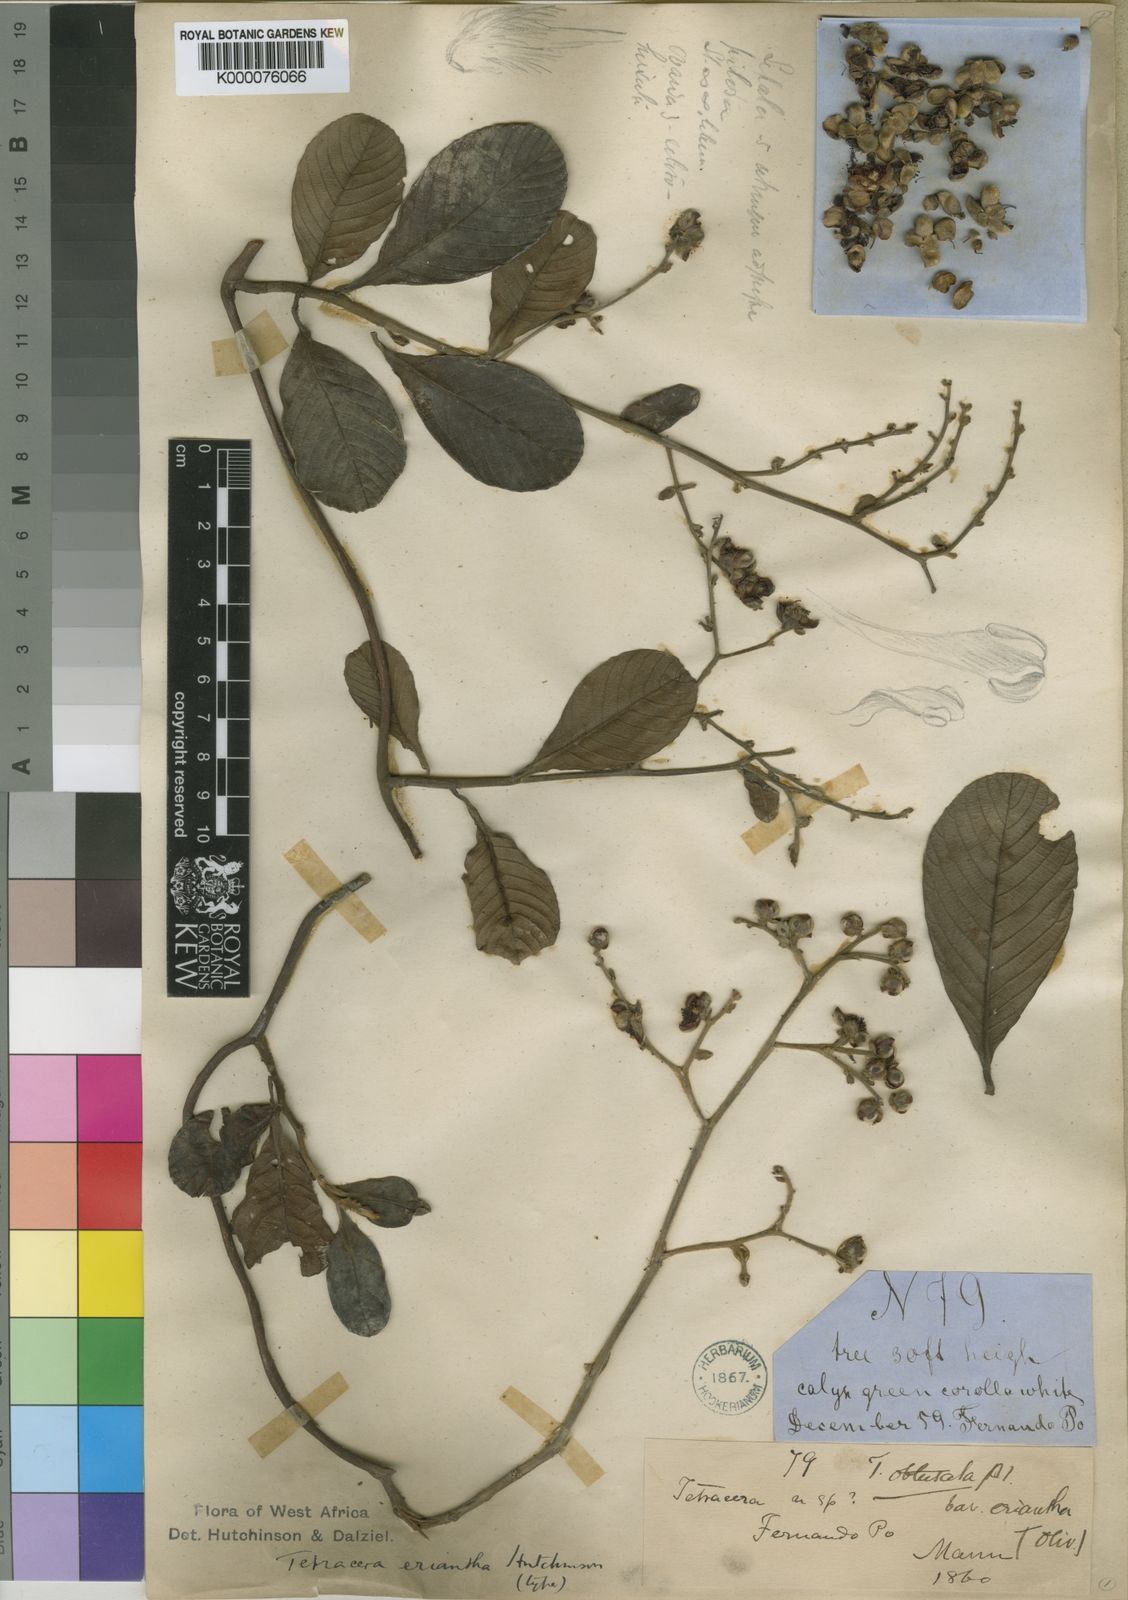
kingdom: Plantae
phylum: Tracheophyta
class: Magnoliopsida
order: Dilleniales
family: Dilleniaceae
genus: Tetracera
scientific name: Tetracera eriantha
